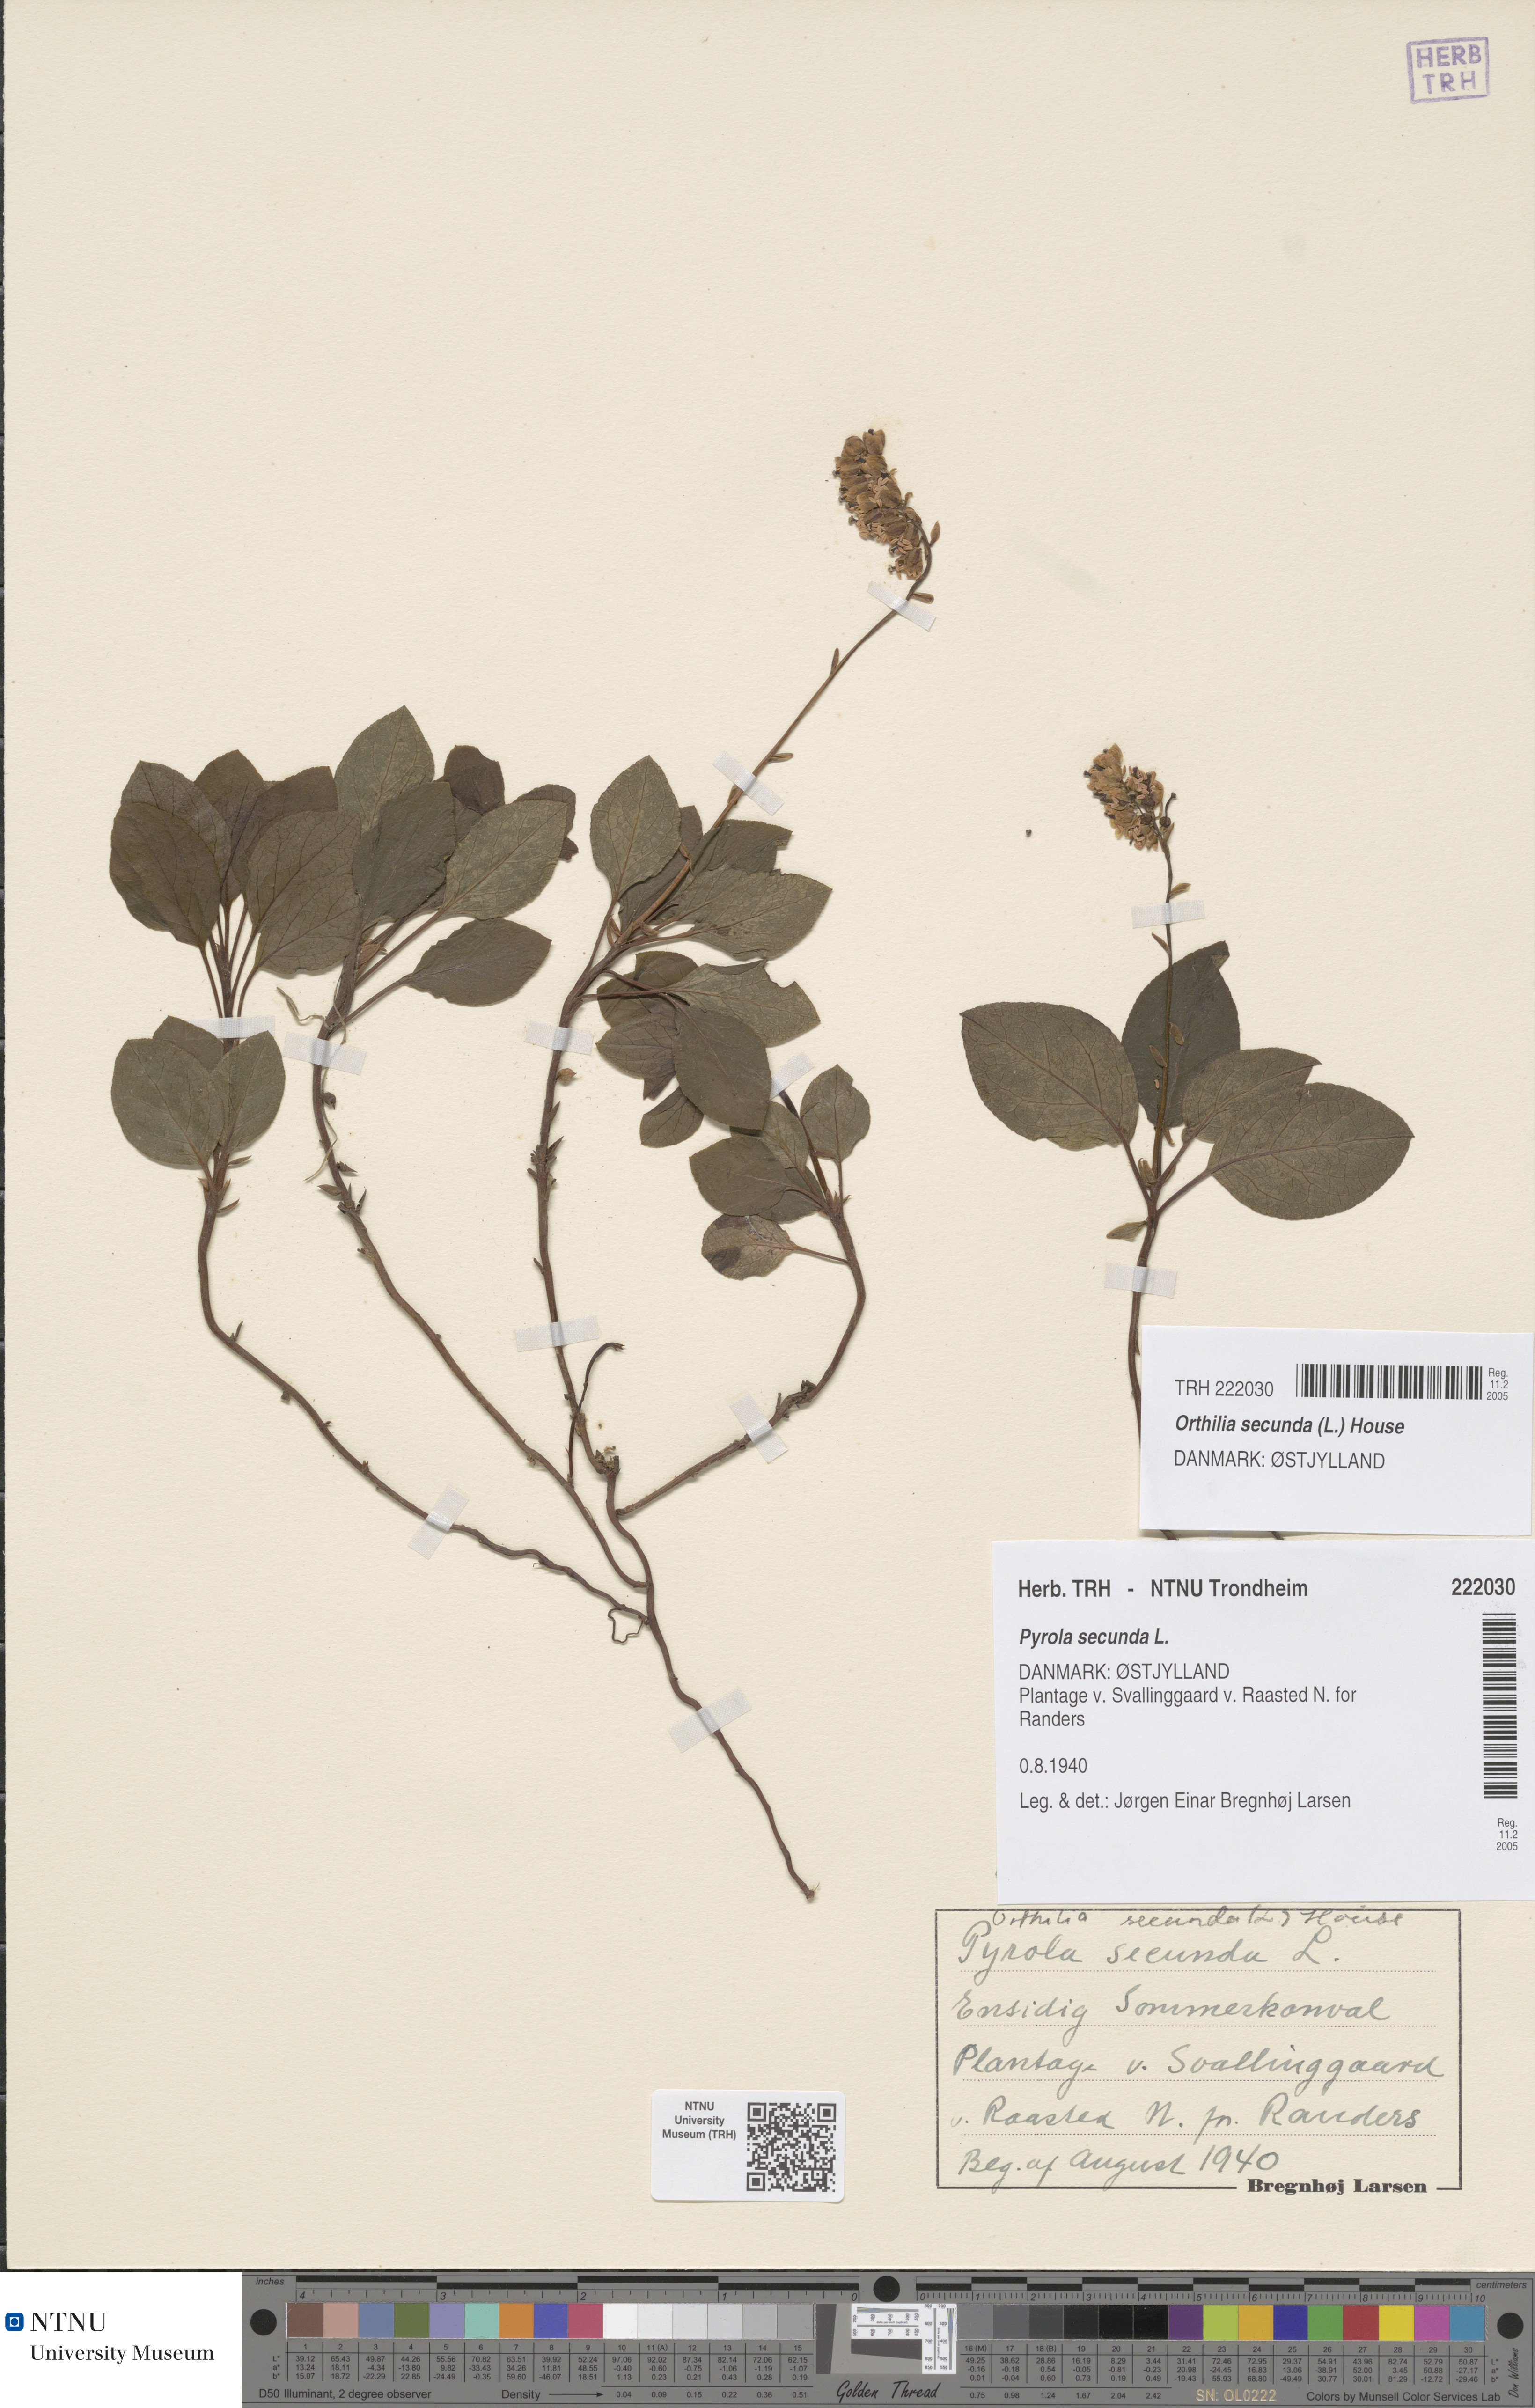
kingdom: Plantae
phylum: Tracheophyta
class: Magnoliopsida
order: Ericales
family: Ericaceae
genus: Orthilia
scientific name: Orthilia secunda
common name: One-sided orthilia
